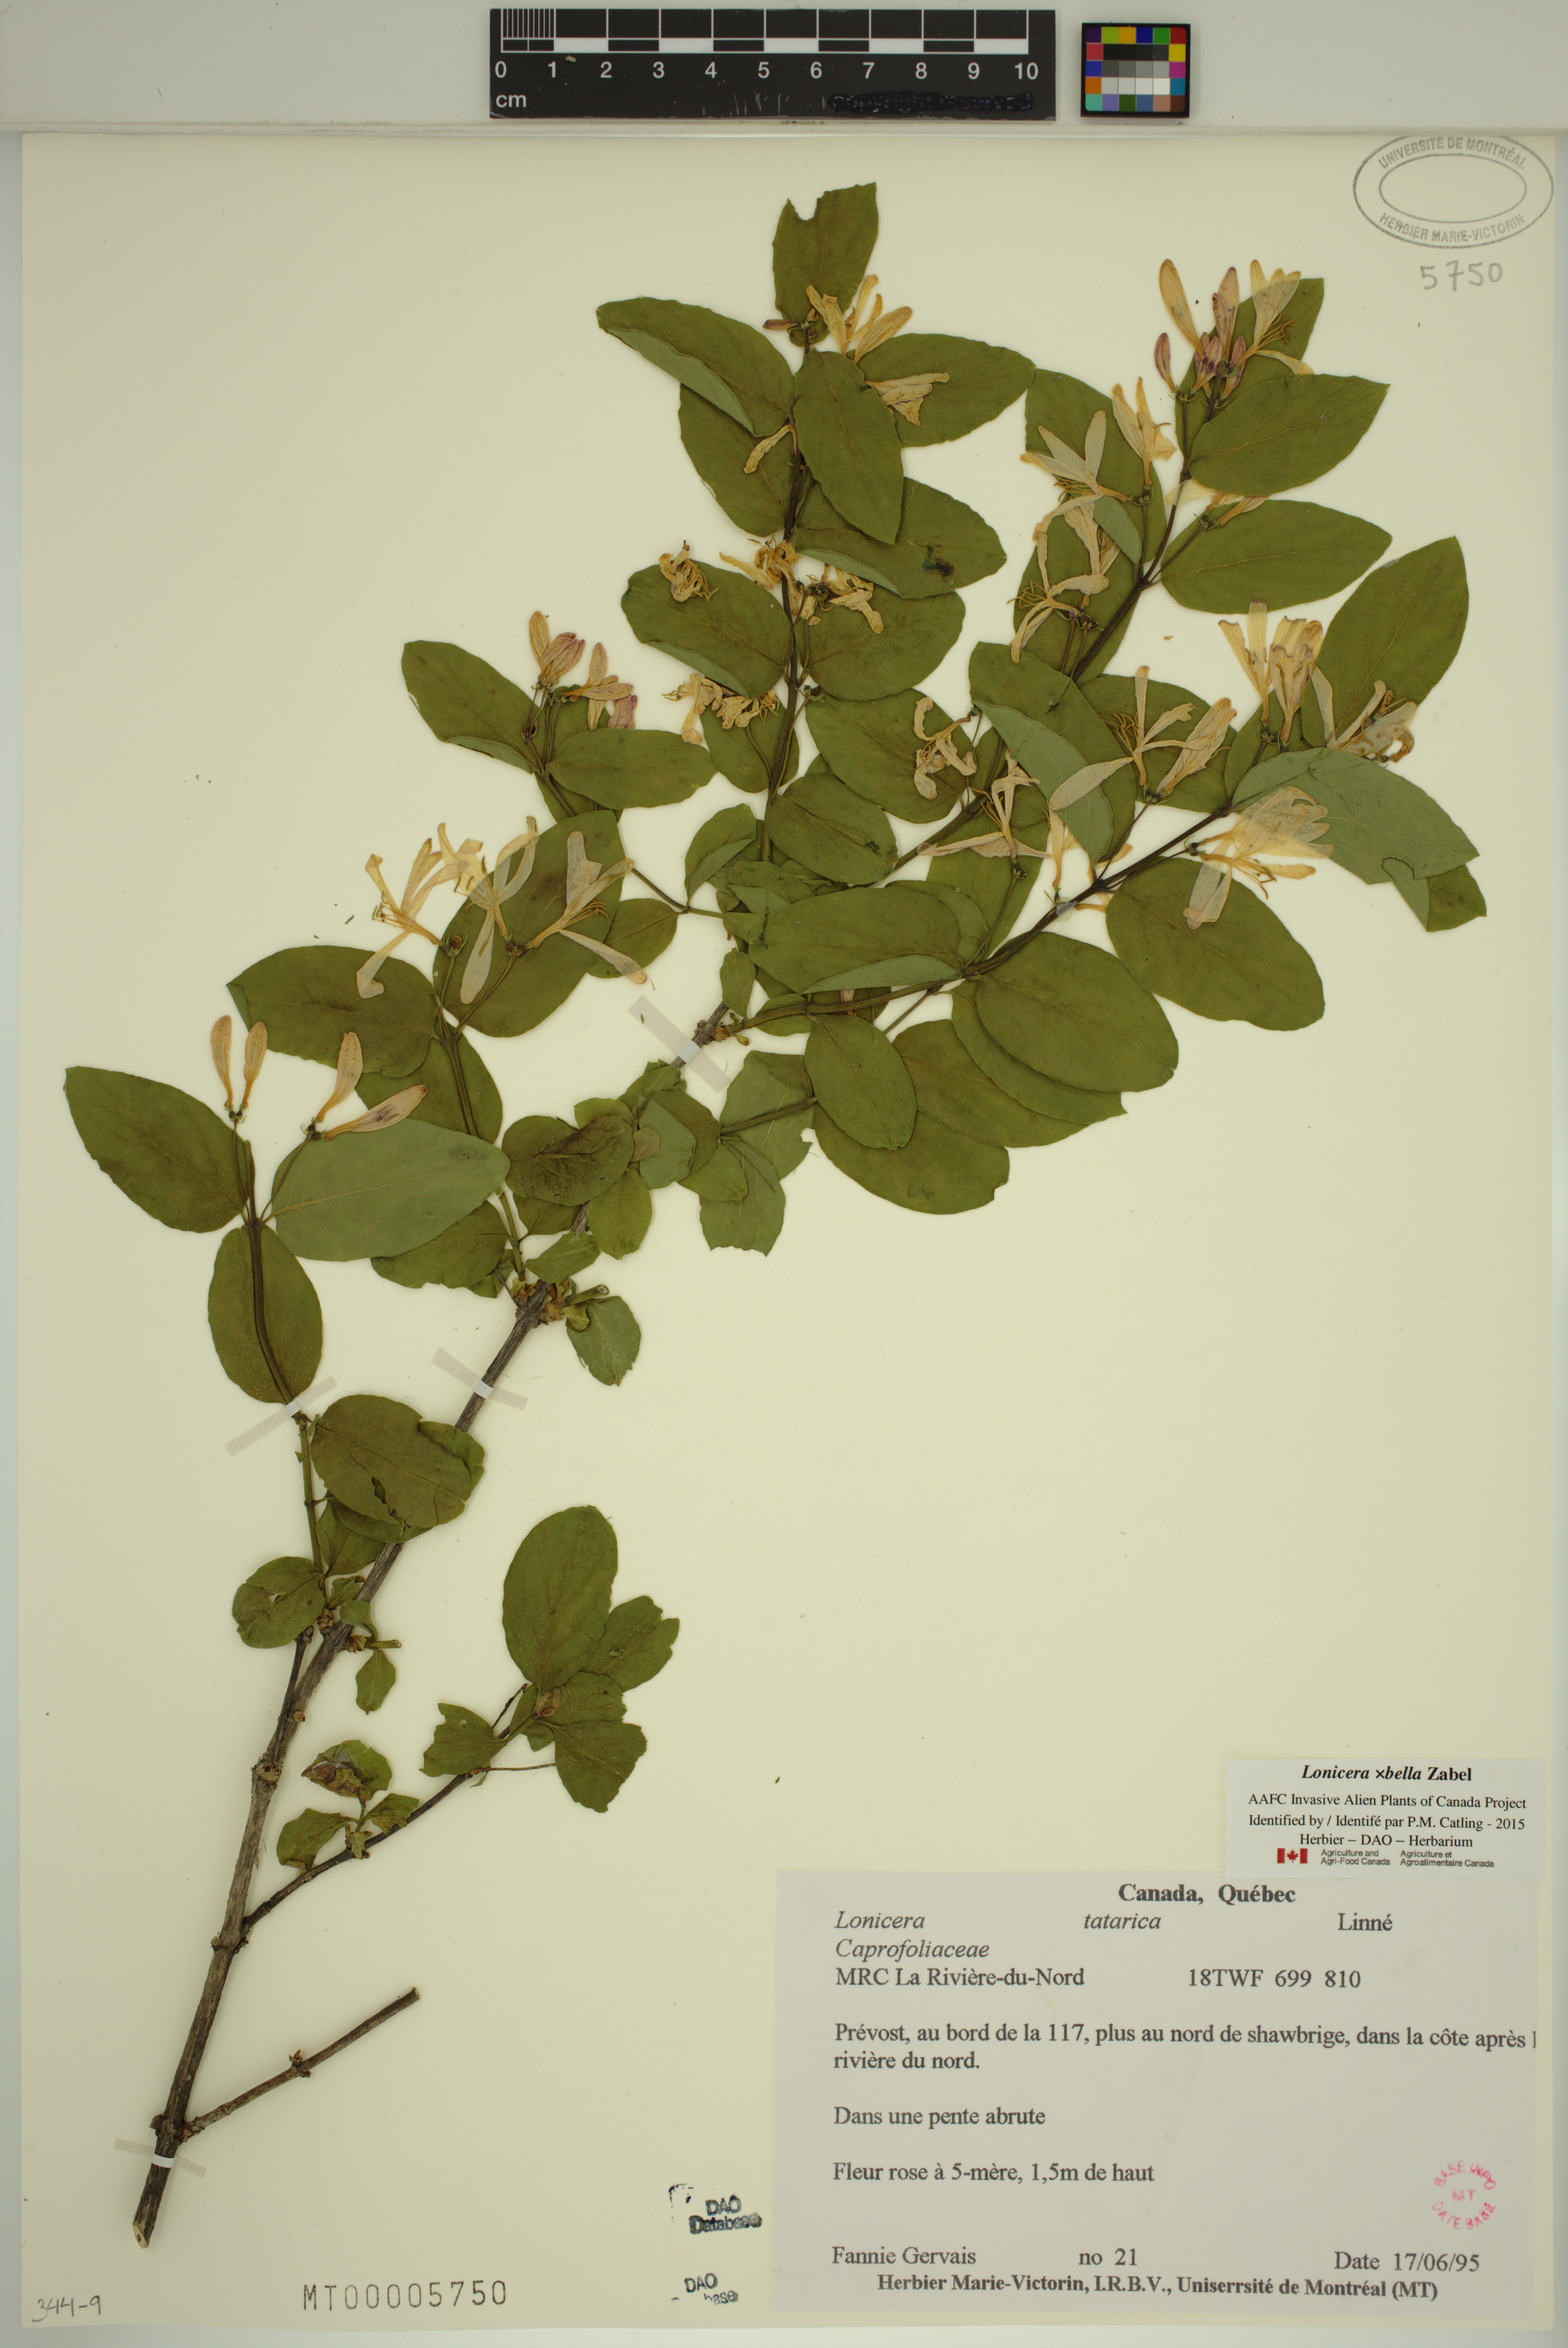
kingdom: Plantae
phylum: Tracheophyta
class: Magnoliopsida
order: Dipsacales
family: Caprifoliaceae
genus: Lonicera
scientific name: Lonicera bella
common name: Bell's honeysuckle
